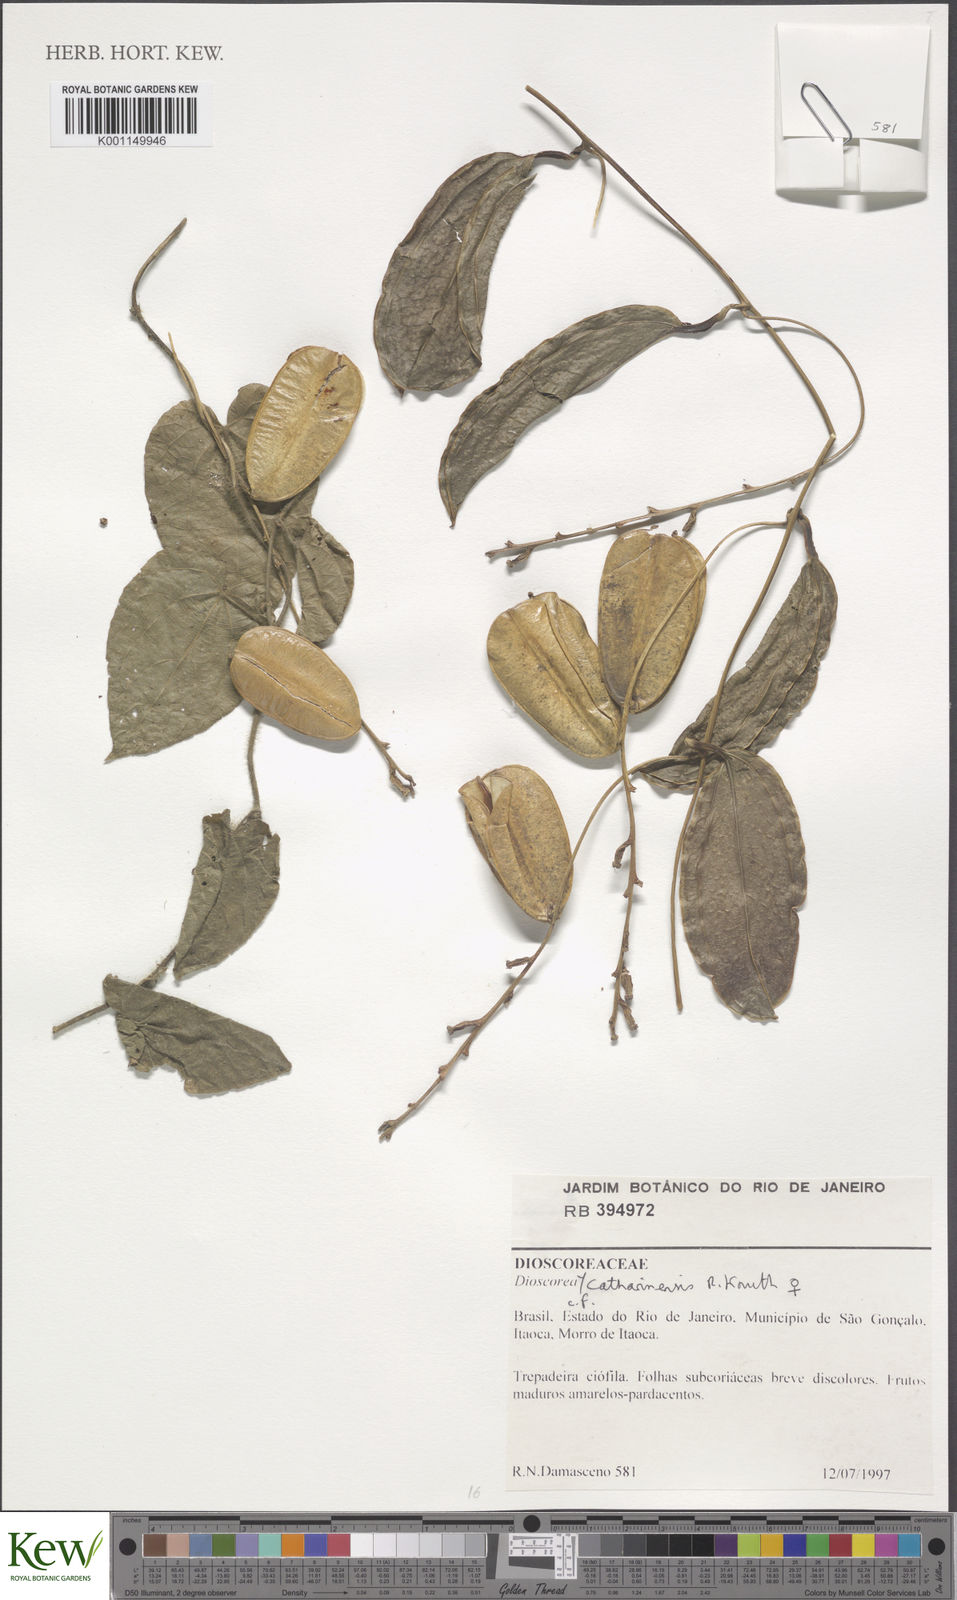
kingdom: Plantae
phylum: Tracheophyta
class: Liliopsida
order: Dioscoreales
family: Dioscoreaceae
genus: Dioscorea
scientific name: Dioscorea marginata
